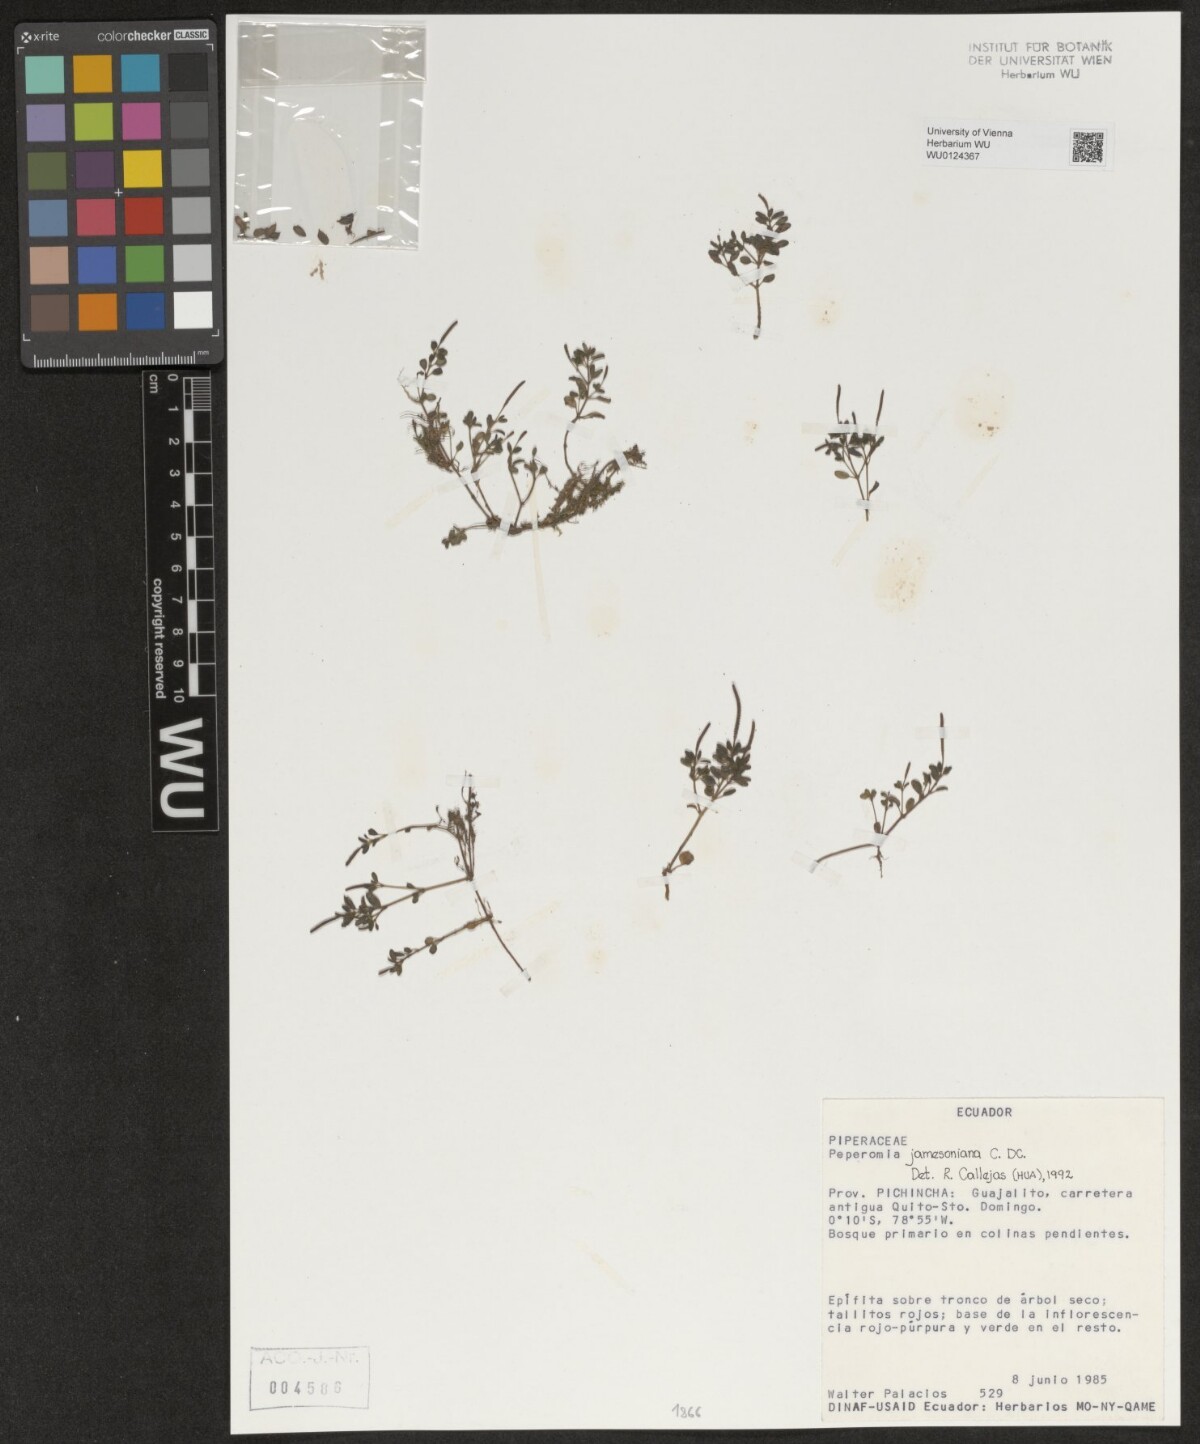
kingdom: Plantae
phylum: Tracheophyta
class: Magnoliopsida
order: Piperales
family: Piperaceae
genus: Peperomia
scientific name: Peperomia jamesoniana
